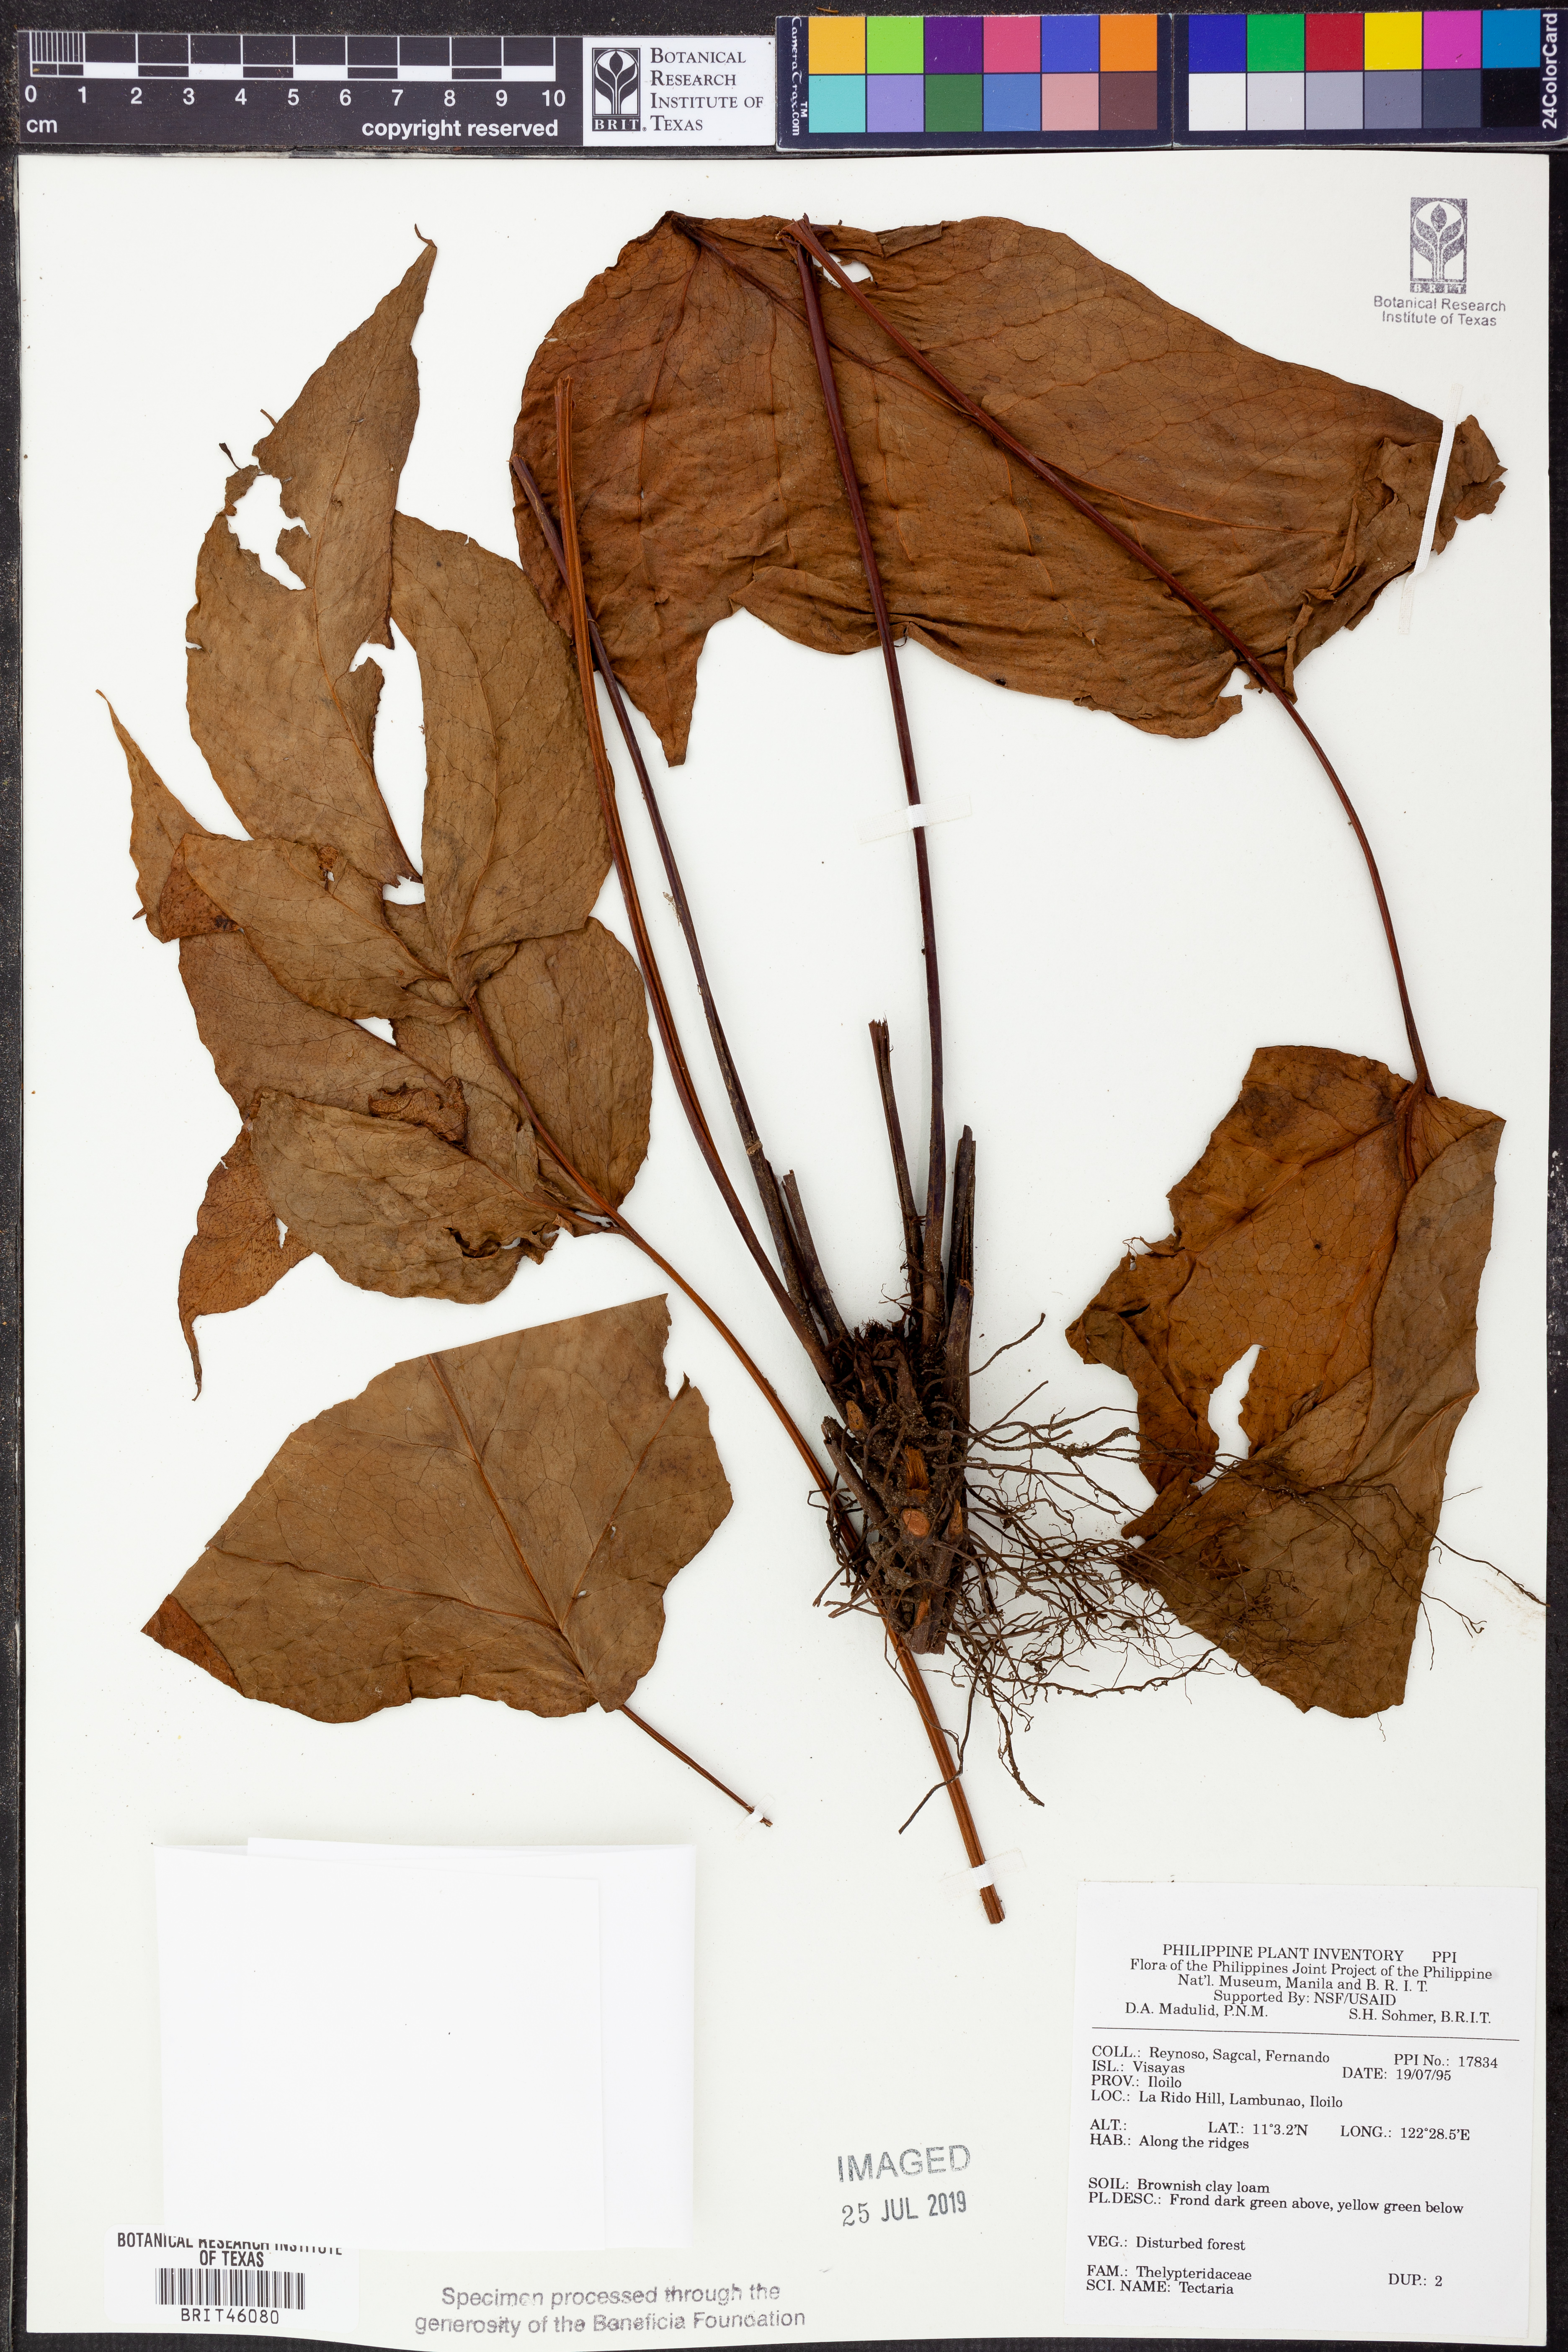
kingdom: Plantae
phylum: Tracheophyta
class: Polypodiopsida
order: Polypodiales
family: Tectariaceae
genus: Tectaria
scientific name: Tectaria
